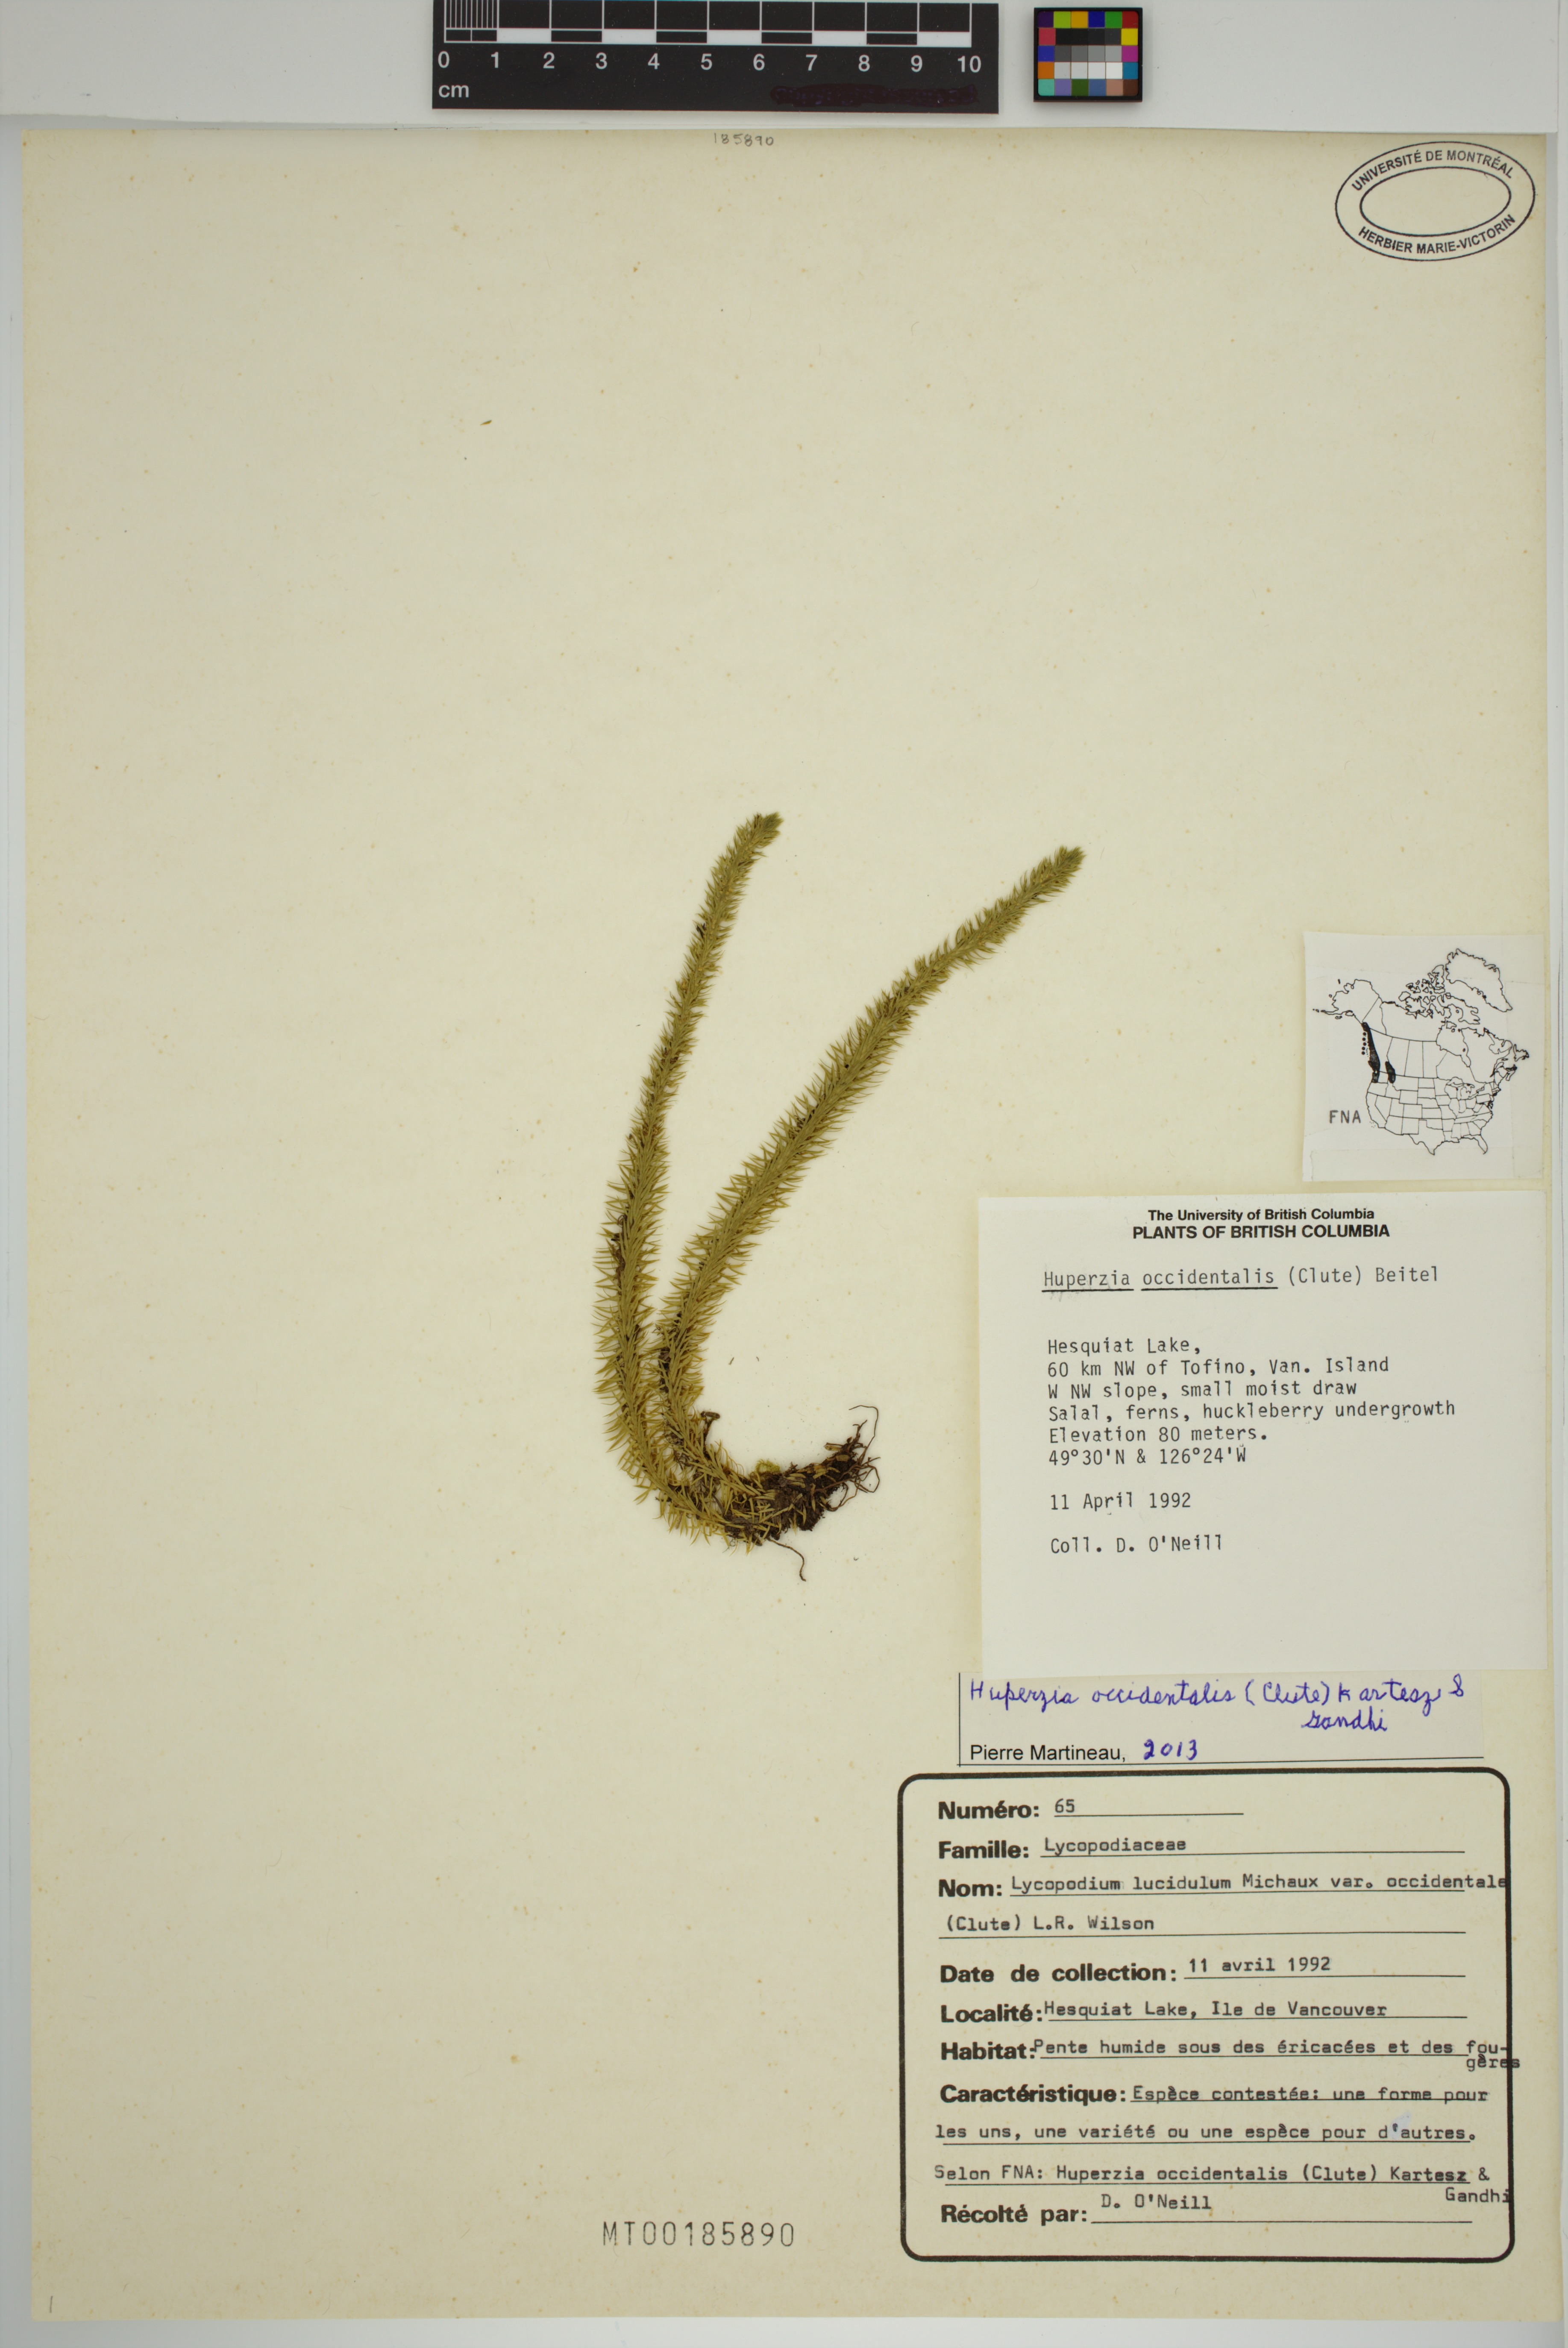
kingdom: Plantae
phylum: Tracheophyta
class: Lycopodiopsida
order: Lycopodiales
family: Lycopodiaceae
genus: Huperzia
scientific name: Huperzia occidentalis
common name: Western clubmoss
